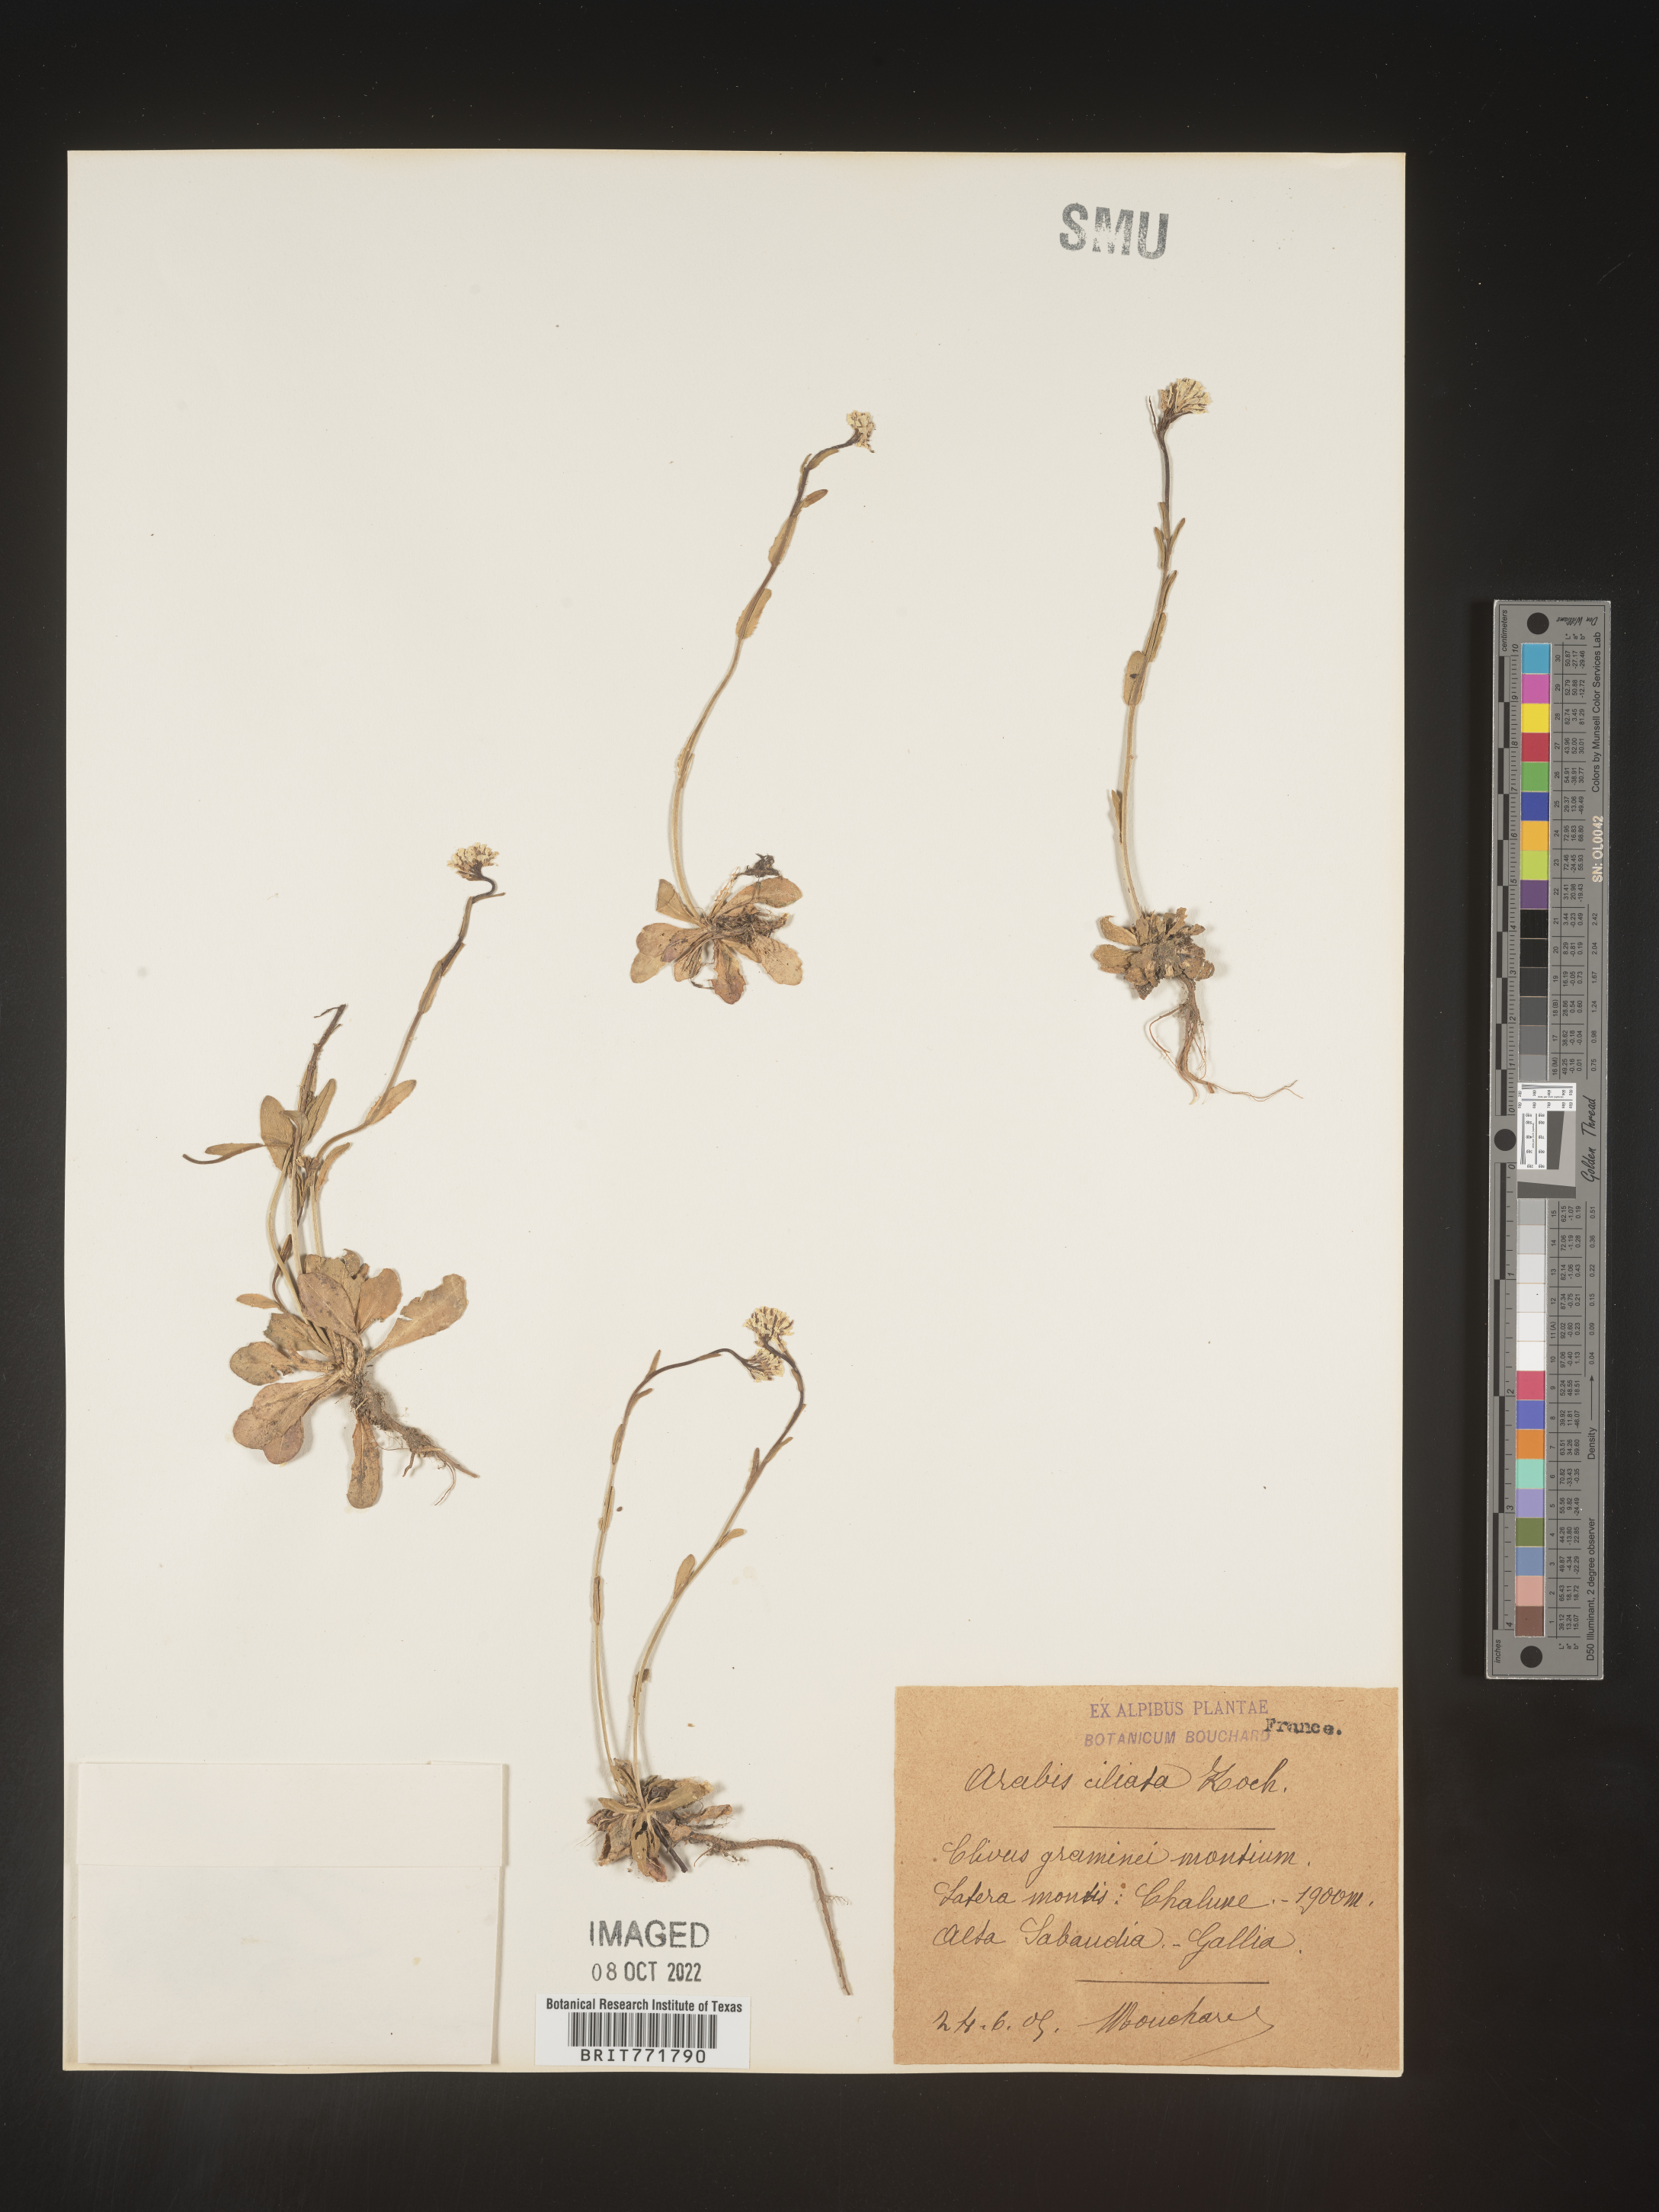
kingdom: Plantae
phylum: Tracheophyta
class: Magnoliopsida
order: Brassicales
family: Brassicaceae
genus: Arabis
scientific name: Arabis
